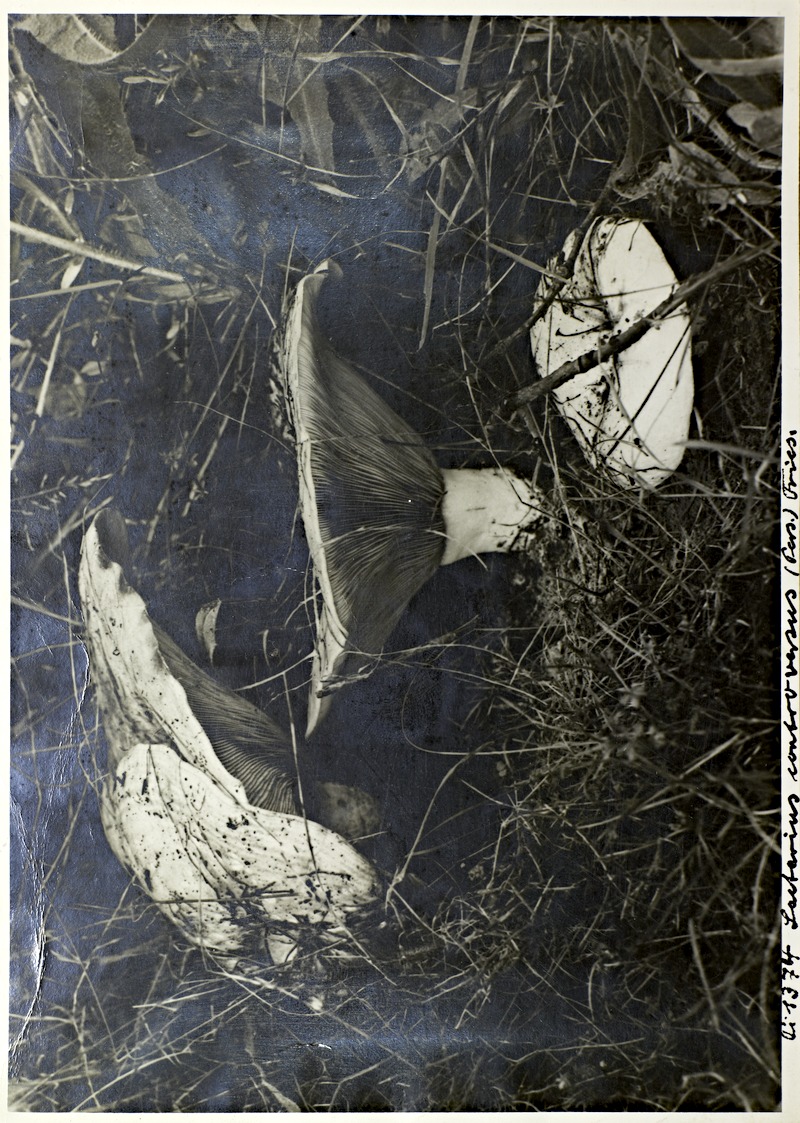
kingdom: Fungi
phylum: Basidiomycota
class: Agaricomycetes
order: Russulales
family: Russulaceae
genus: Lactarius
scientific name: Lactarius controversus
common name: Blushing milkcap
